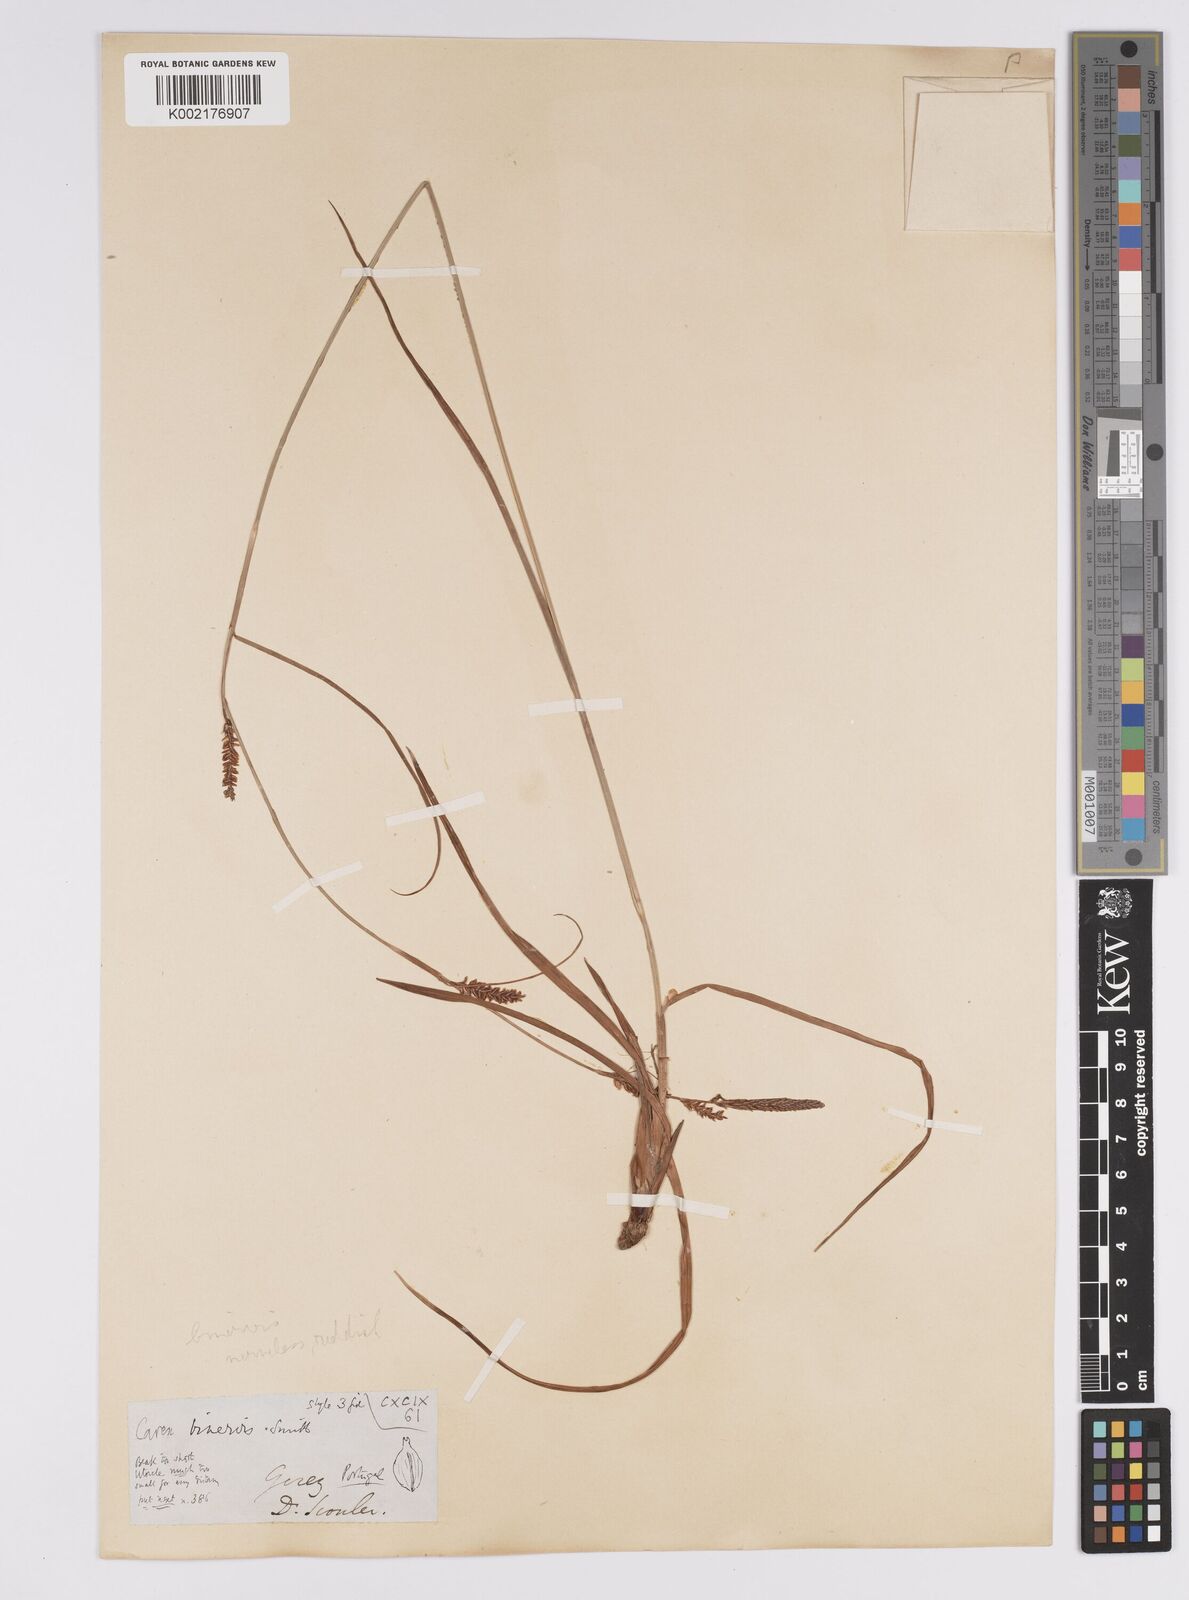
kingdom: Plantae
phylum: Tracheophyta
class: Liliopsida
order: Poales
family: Cyperaceae
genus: Carex
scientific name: Carex binervis
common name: Green-ribbed sedge
